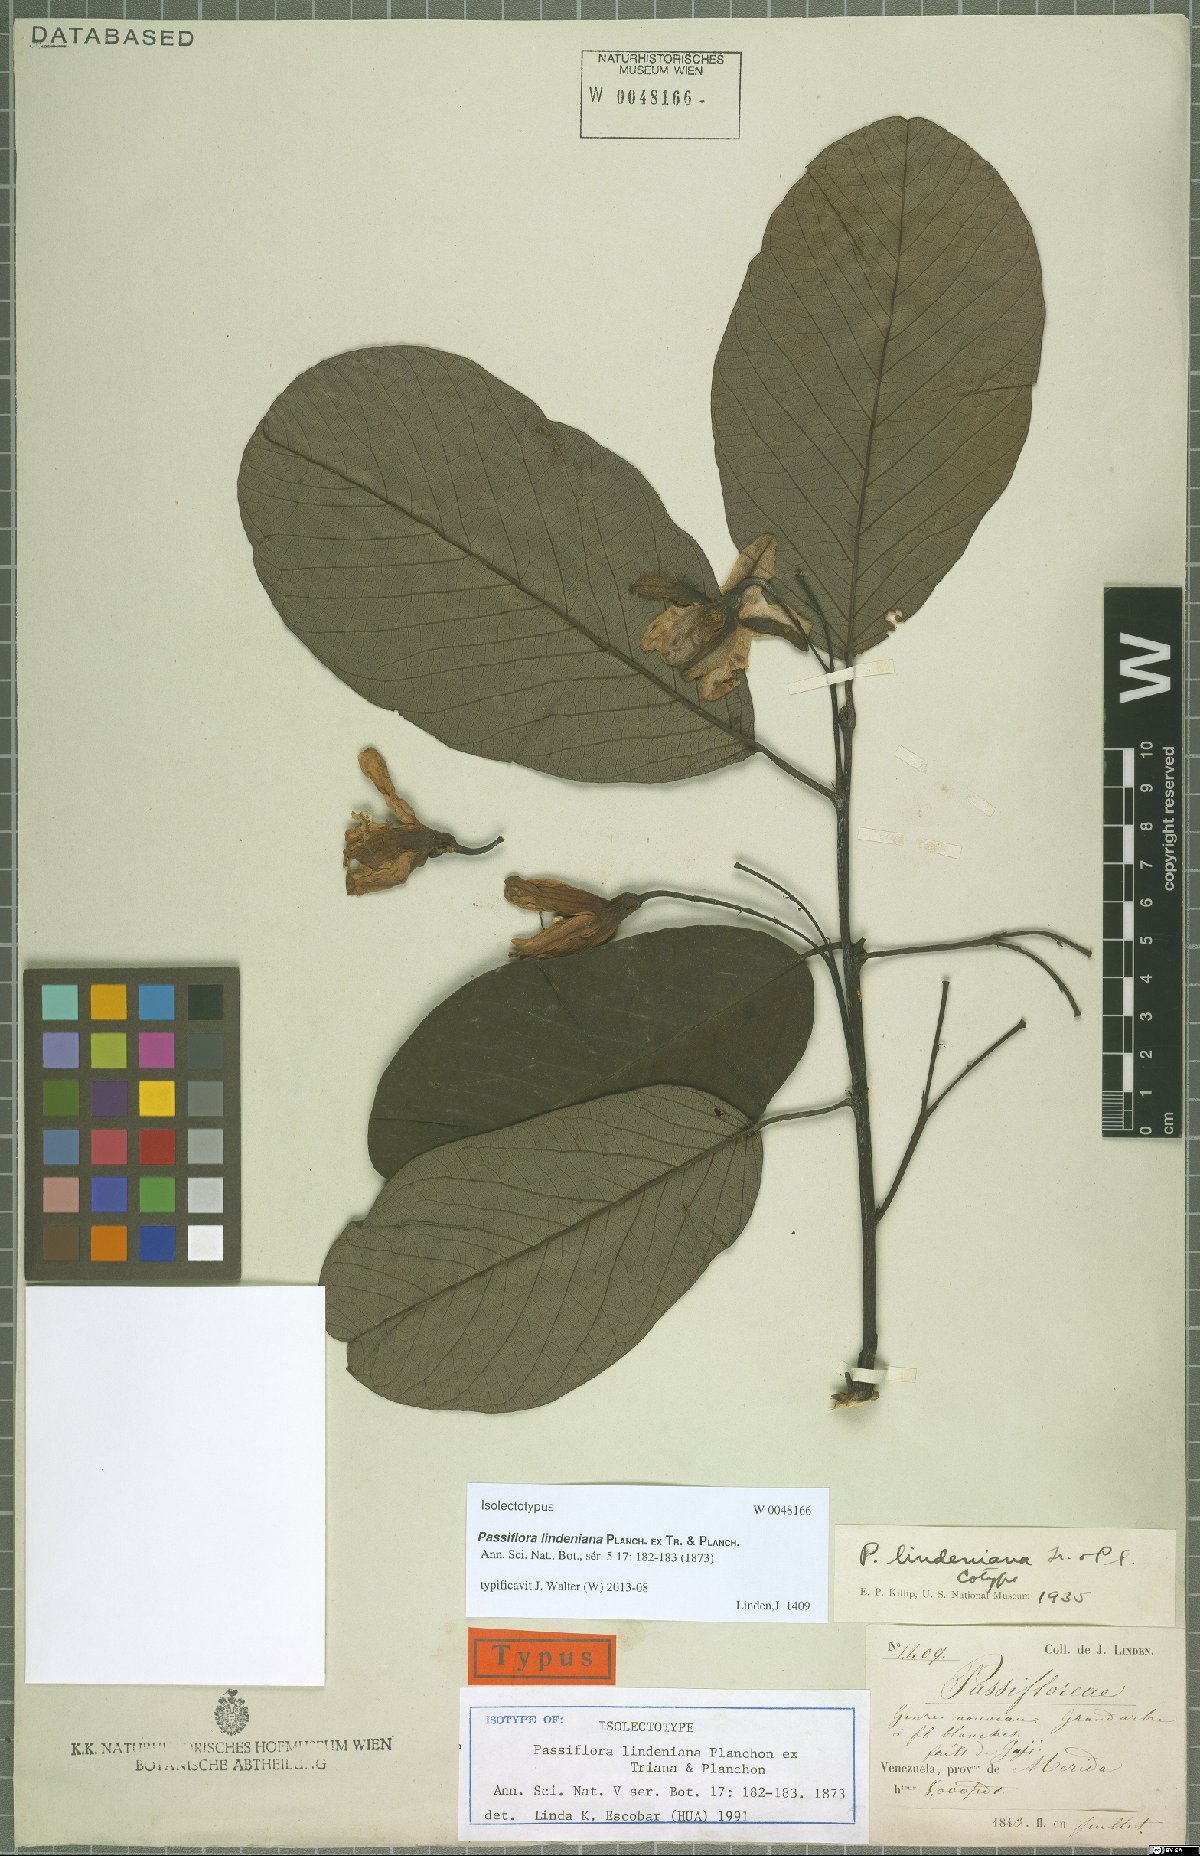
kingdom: Plantae
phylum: Tracheophyta
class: Magnoliopsida
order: Malpighiales
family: Passifloraceae
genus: Passiflora
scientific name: Passiflora lindeniana
